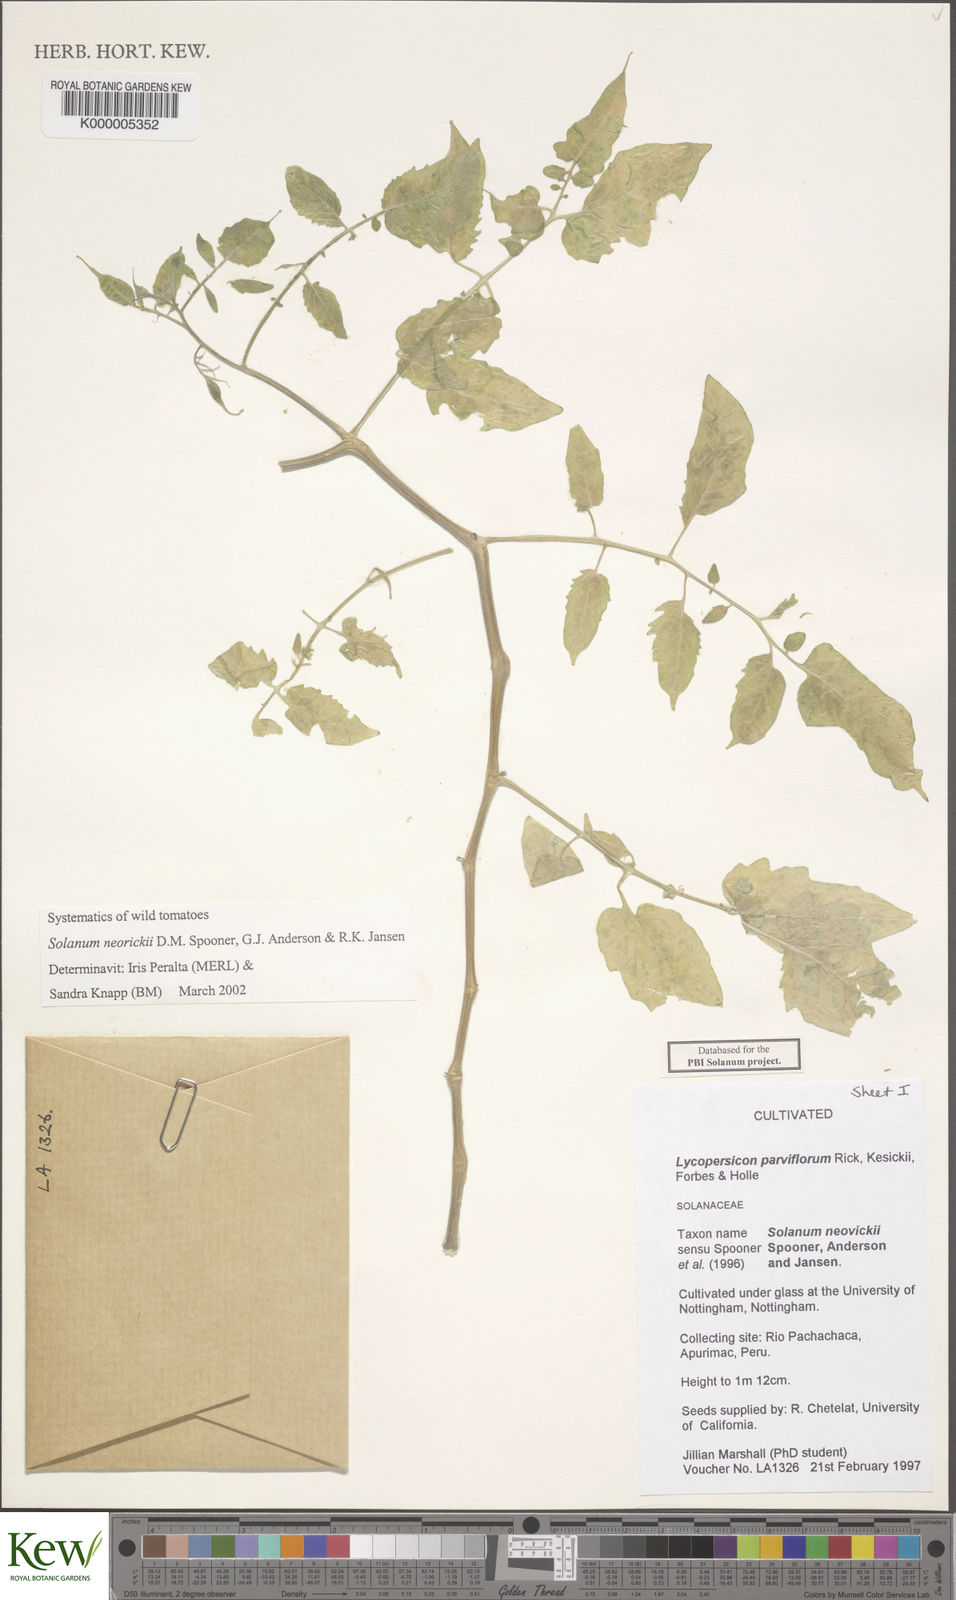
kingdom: Plantae
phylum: Tracheophyta
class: Magnoliopsida
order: Solanales
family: Solanaceae
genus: Solanum
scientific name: Solanum neorickii
